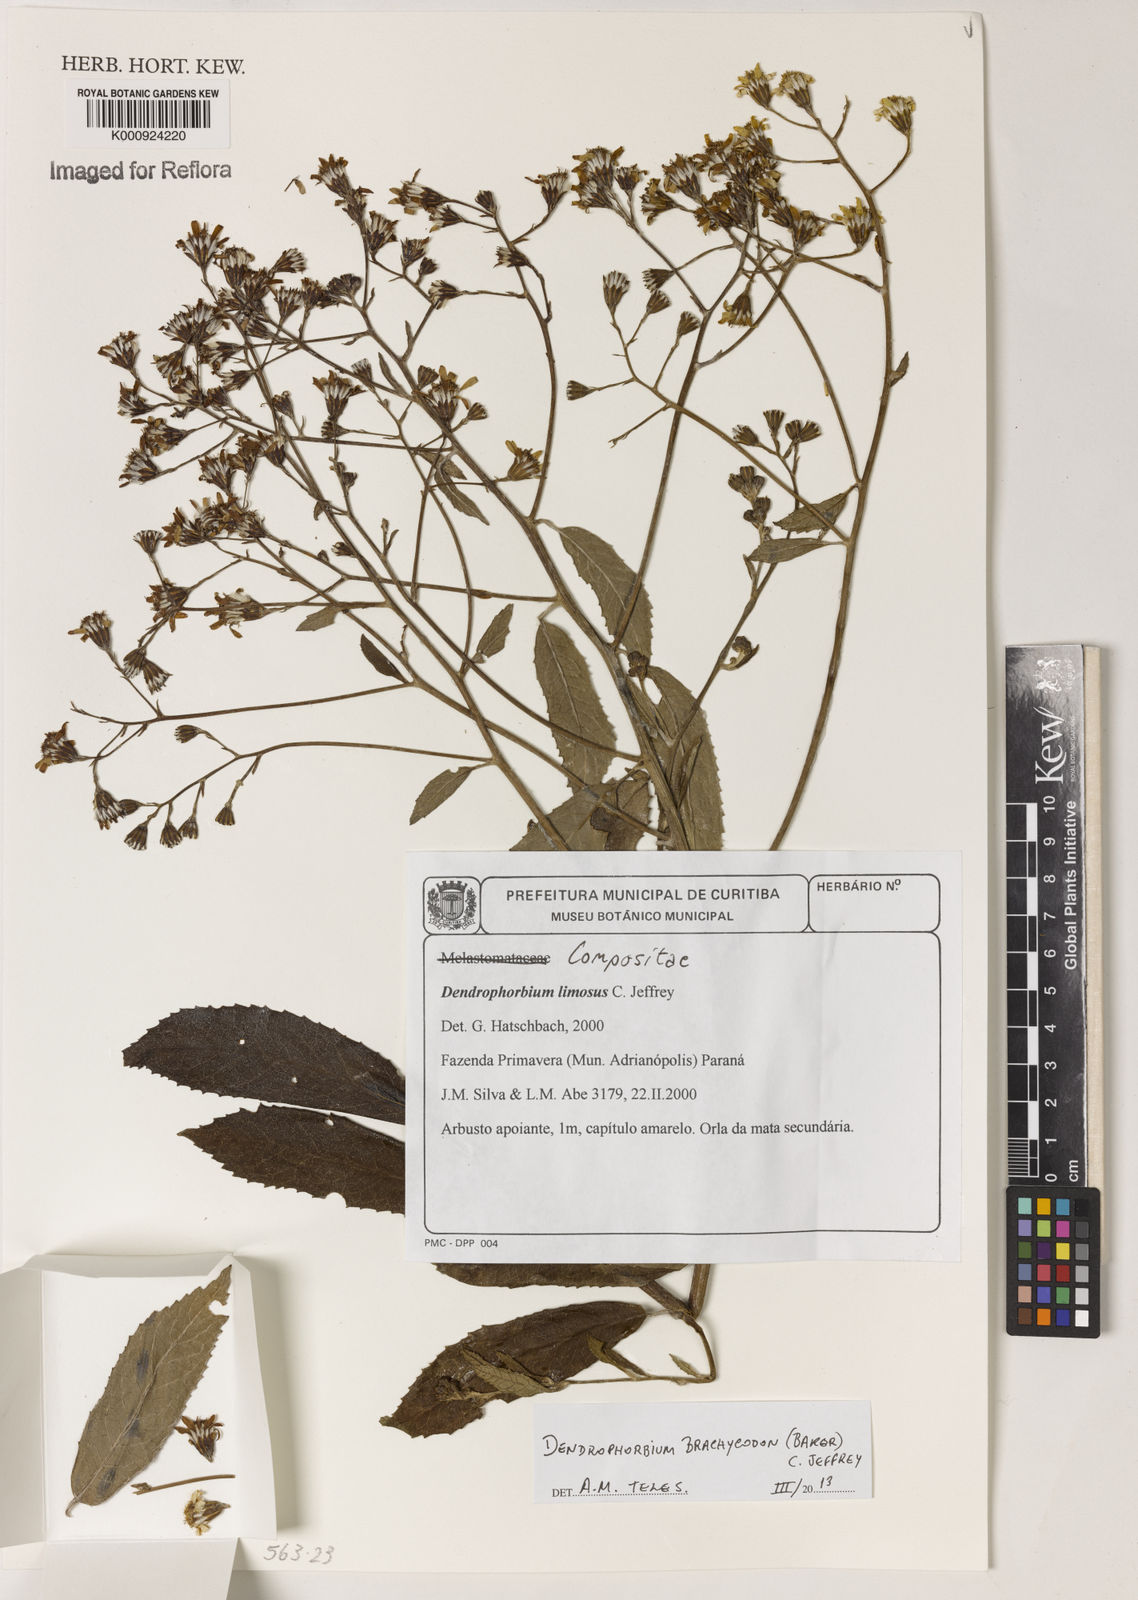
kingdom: Plantae
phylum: Tracheophyta
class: Magnoliopsida
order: Asterales
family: Asteraceae
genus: Dendrophorbium
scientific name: Dendrophorbium brachycodon
